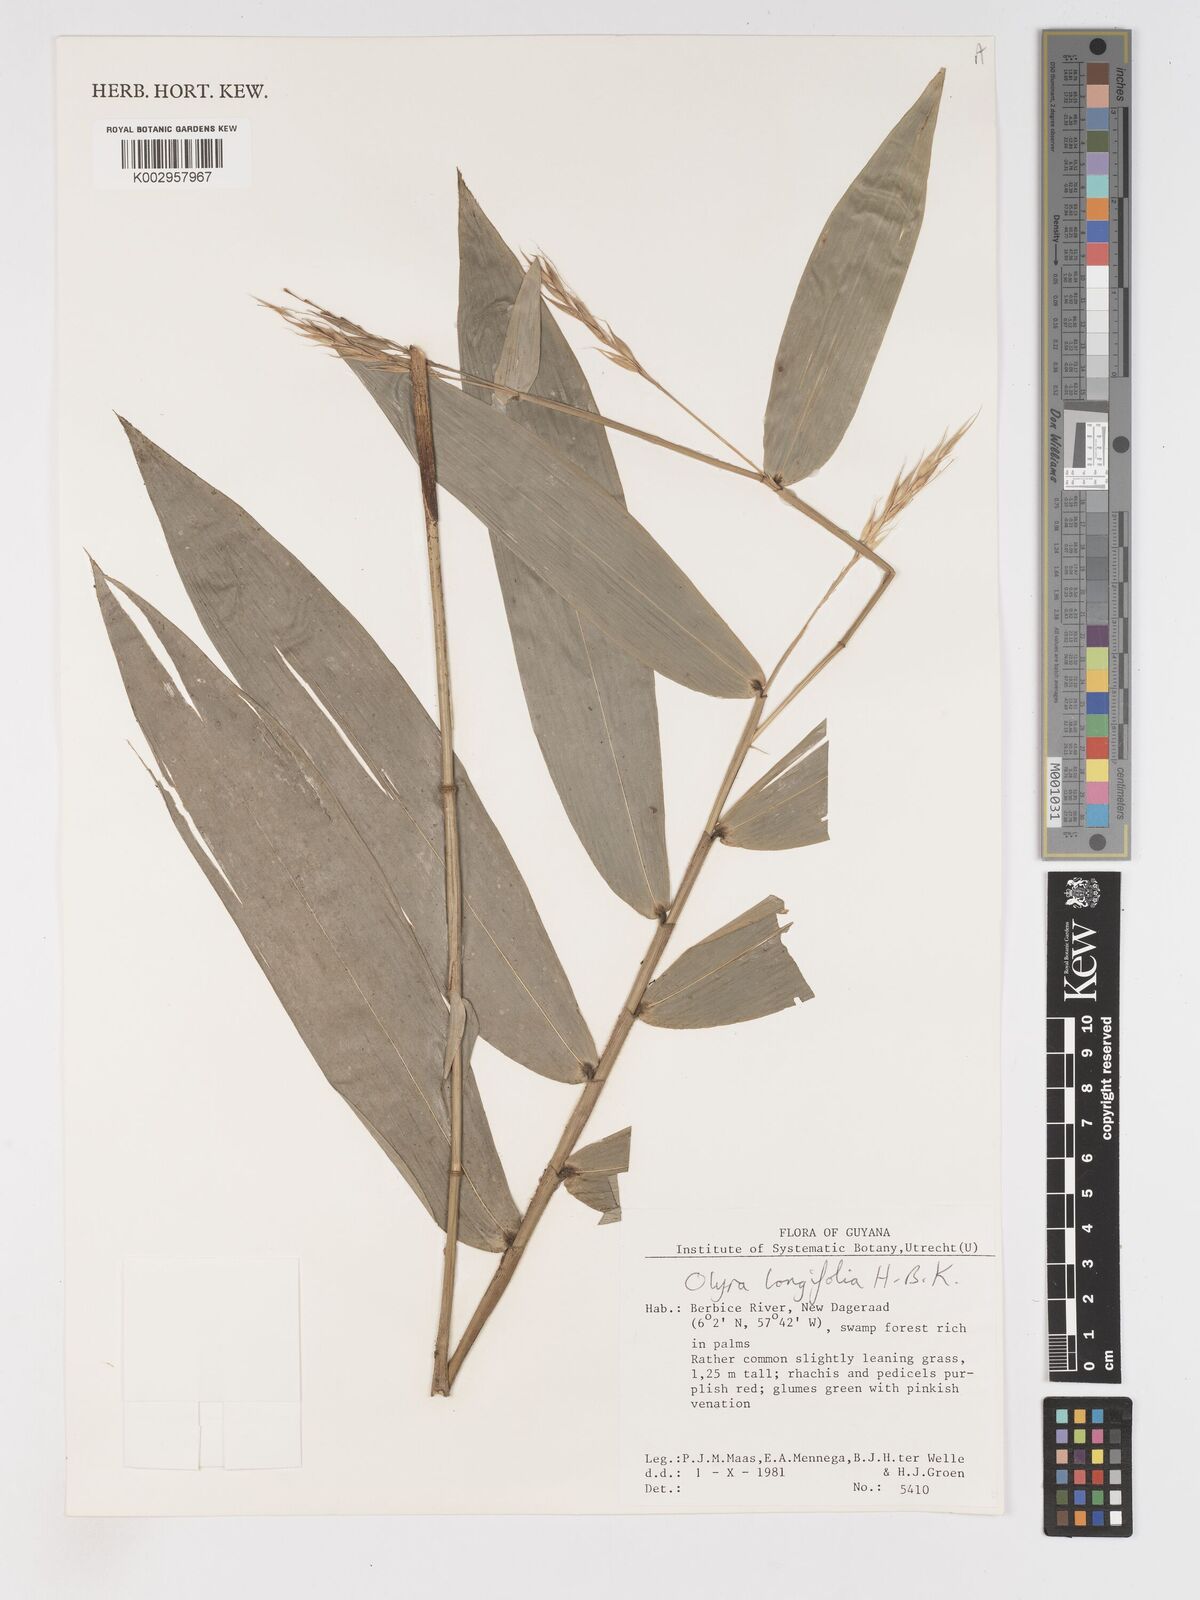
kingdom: Plantae
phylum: Tracheophyta
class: Liliopsida
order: Poales
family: Poaceae
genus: Olyra
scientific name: Olyra longifolia
